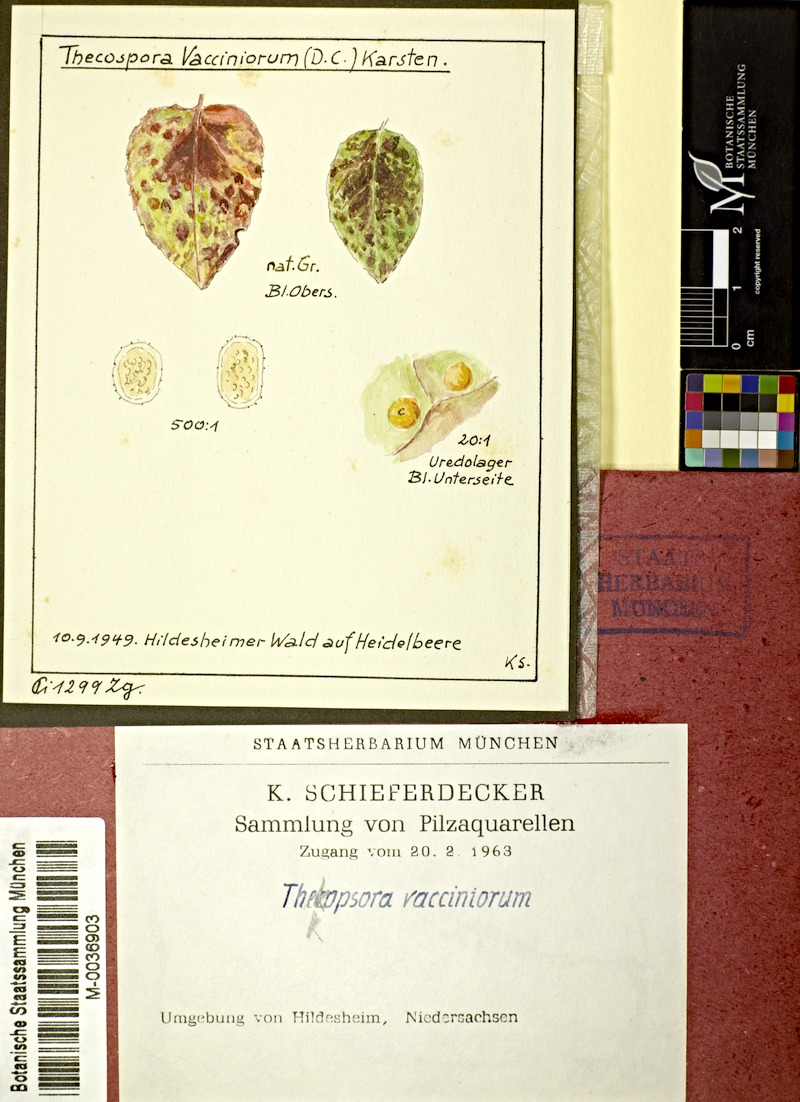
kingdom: Fungi
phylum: Basidiomycota
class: Pucciniomycetes
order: Pucciniales
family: Pucciniastraceae
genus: Naohidemyces
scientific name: Naohidemyces vaccinii
